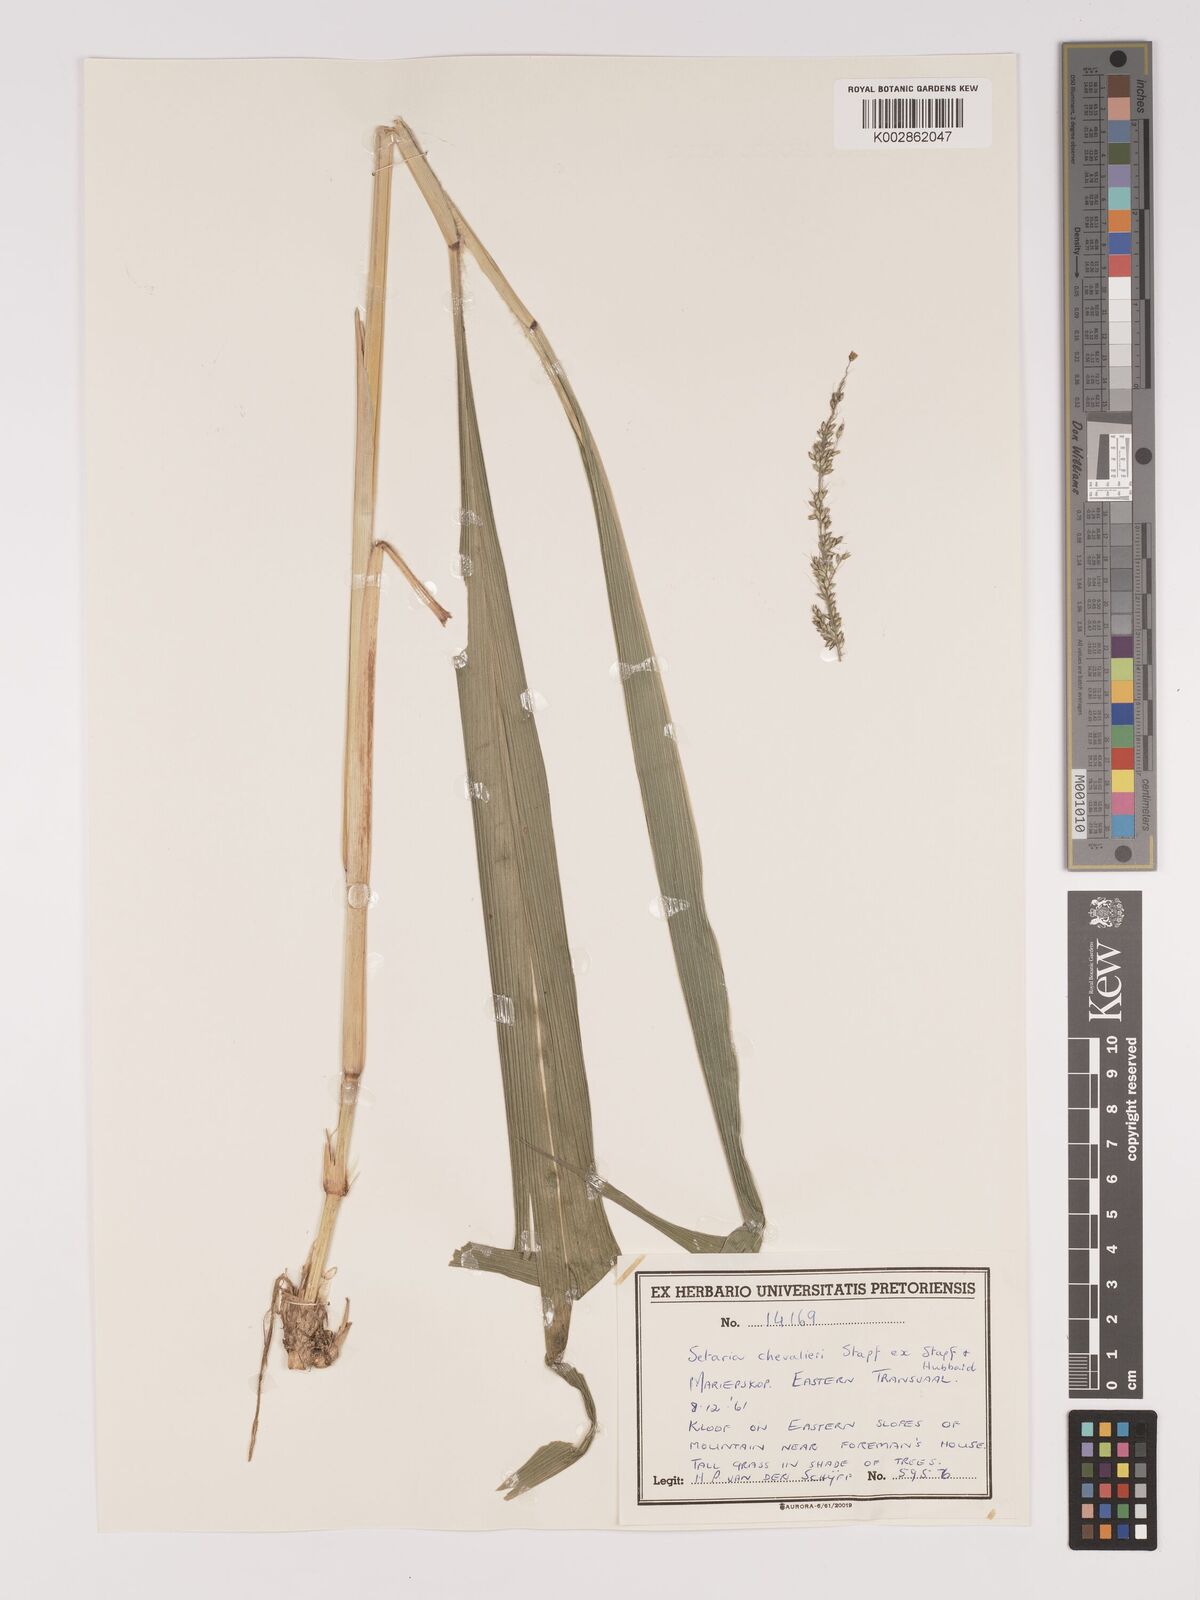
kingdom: Plantae
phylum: Tracheophyta
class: Liliopsida
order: Poales
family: Poaceae
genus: Setaria
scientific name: Setaria megaphylla
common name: Bigleaf bristlegrass
